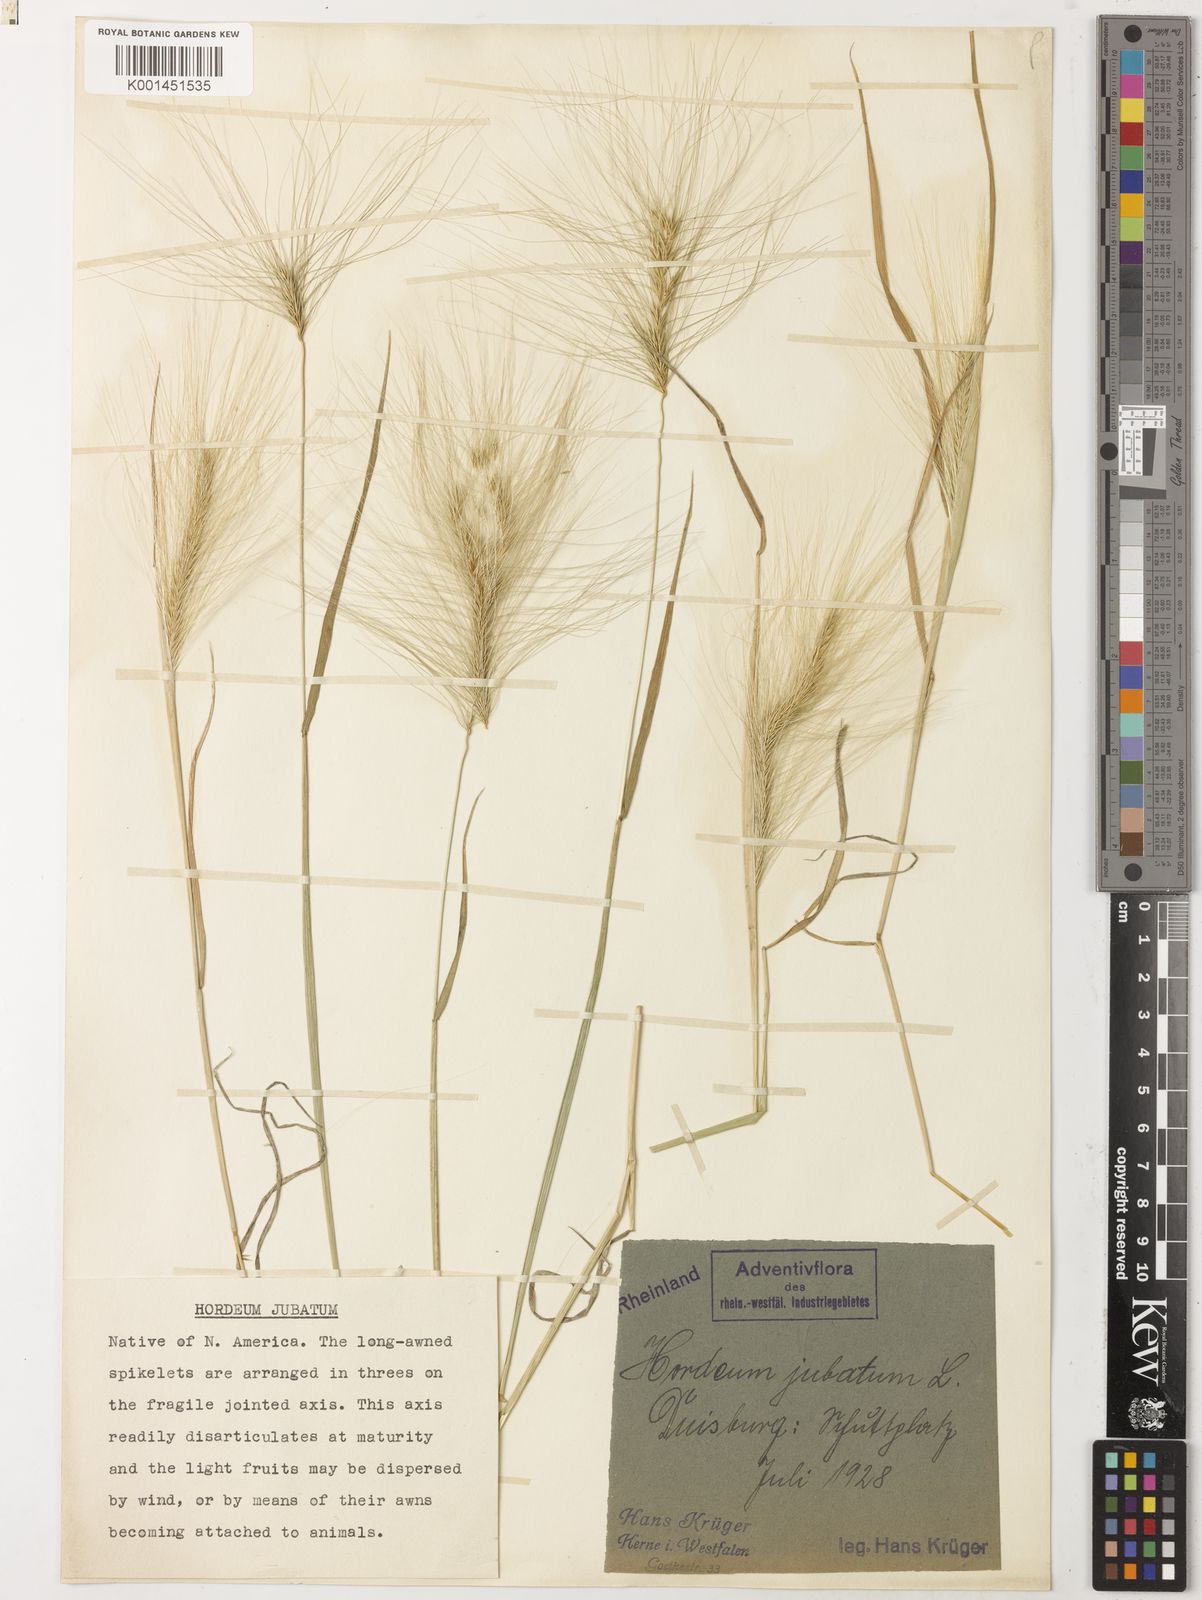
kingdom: Plantae
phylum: Tracheophyta
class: Liliopsida
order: Poales
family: Poaceae
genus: Hordeum
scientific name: Hordeum jubatum
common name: Foxtail barley
